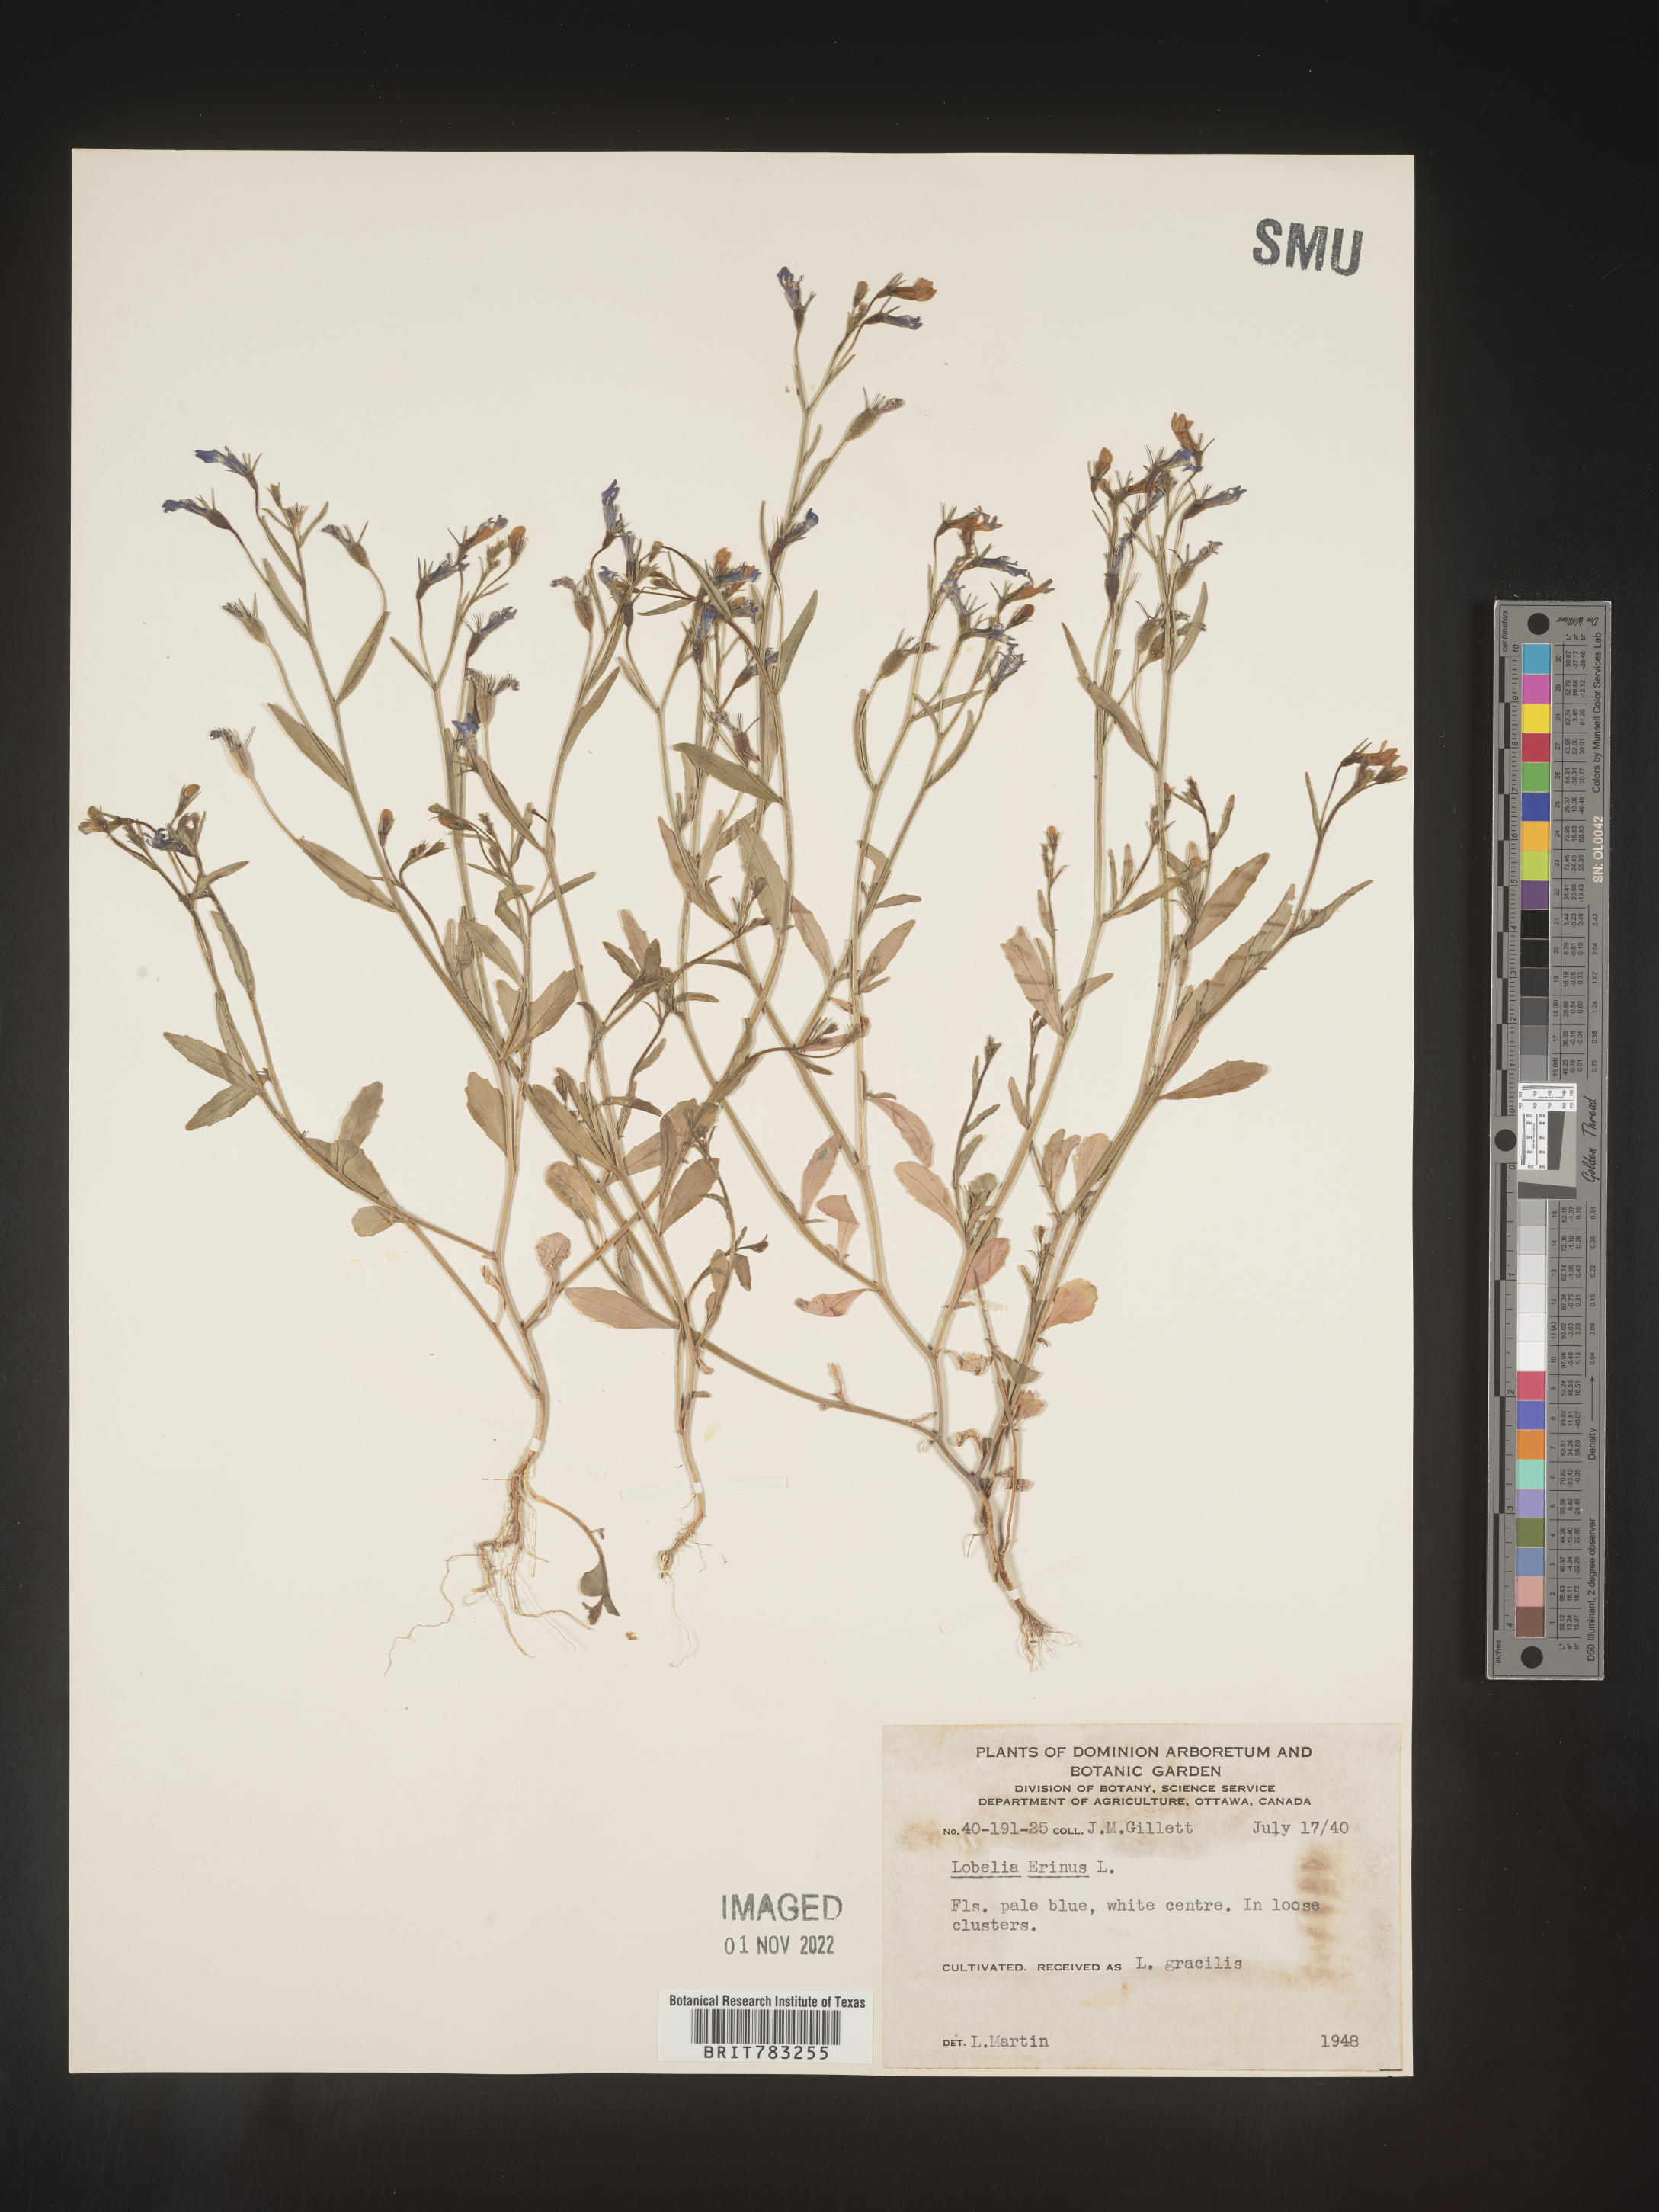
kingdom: Plantae
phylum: Tracheophyta
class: Magnoliopsida
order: Asterales
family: Campanulaceae
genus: Lobelia
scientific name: Lobelia
